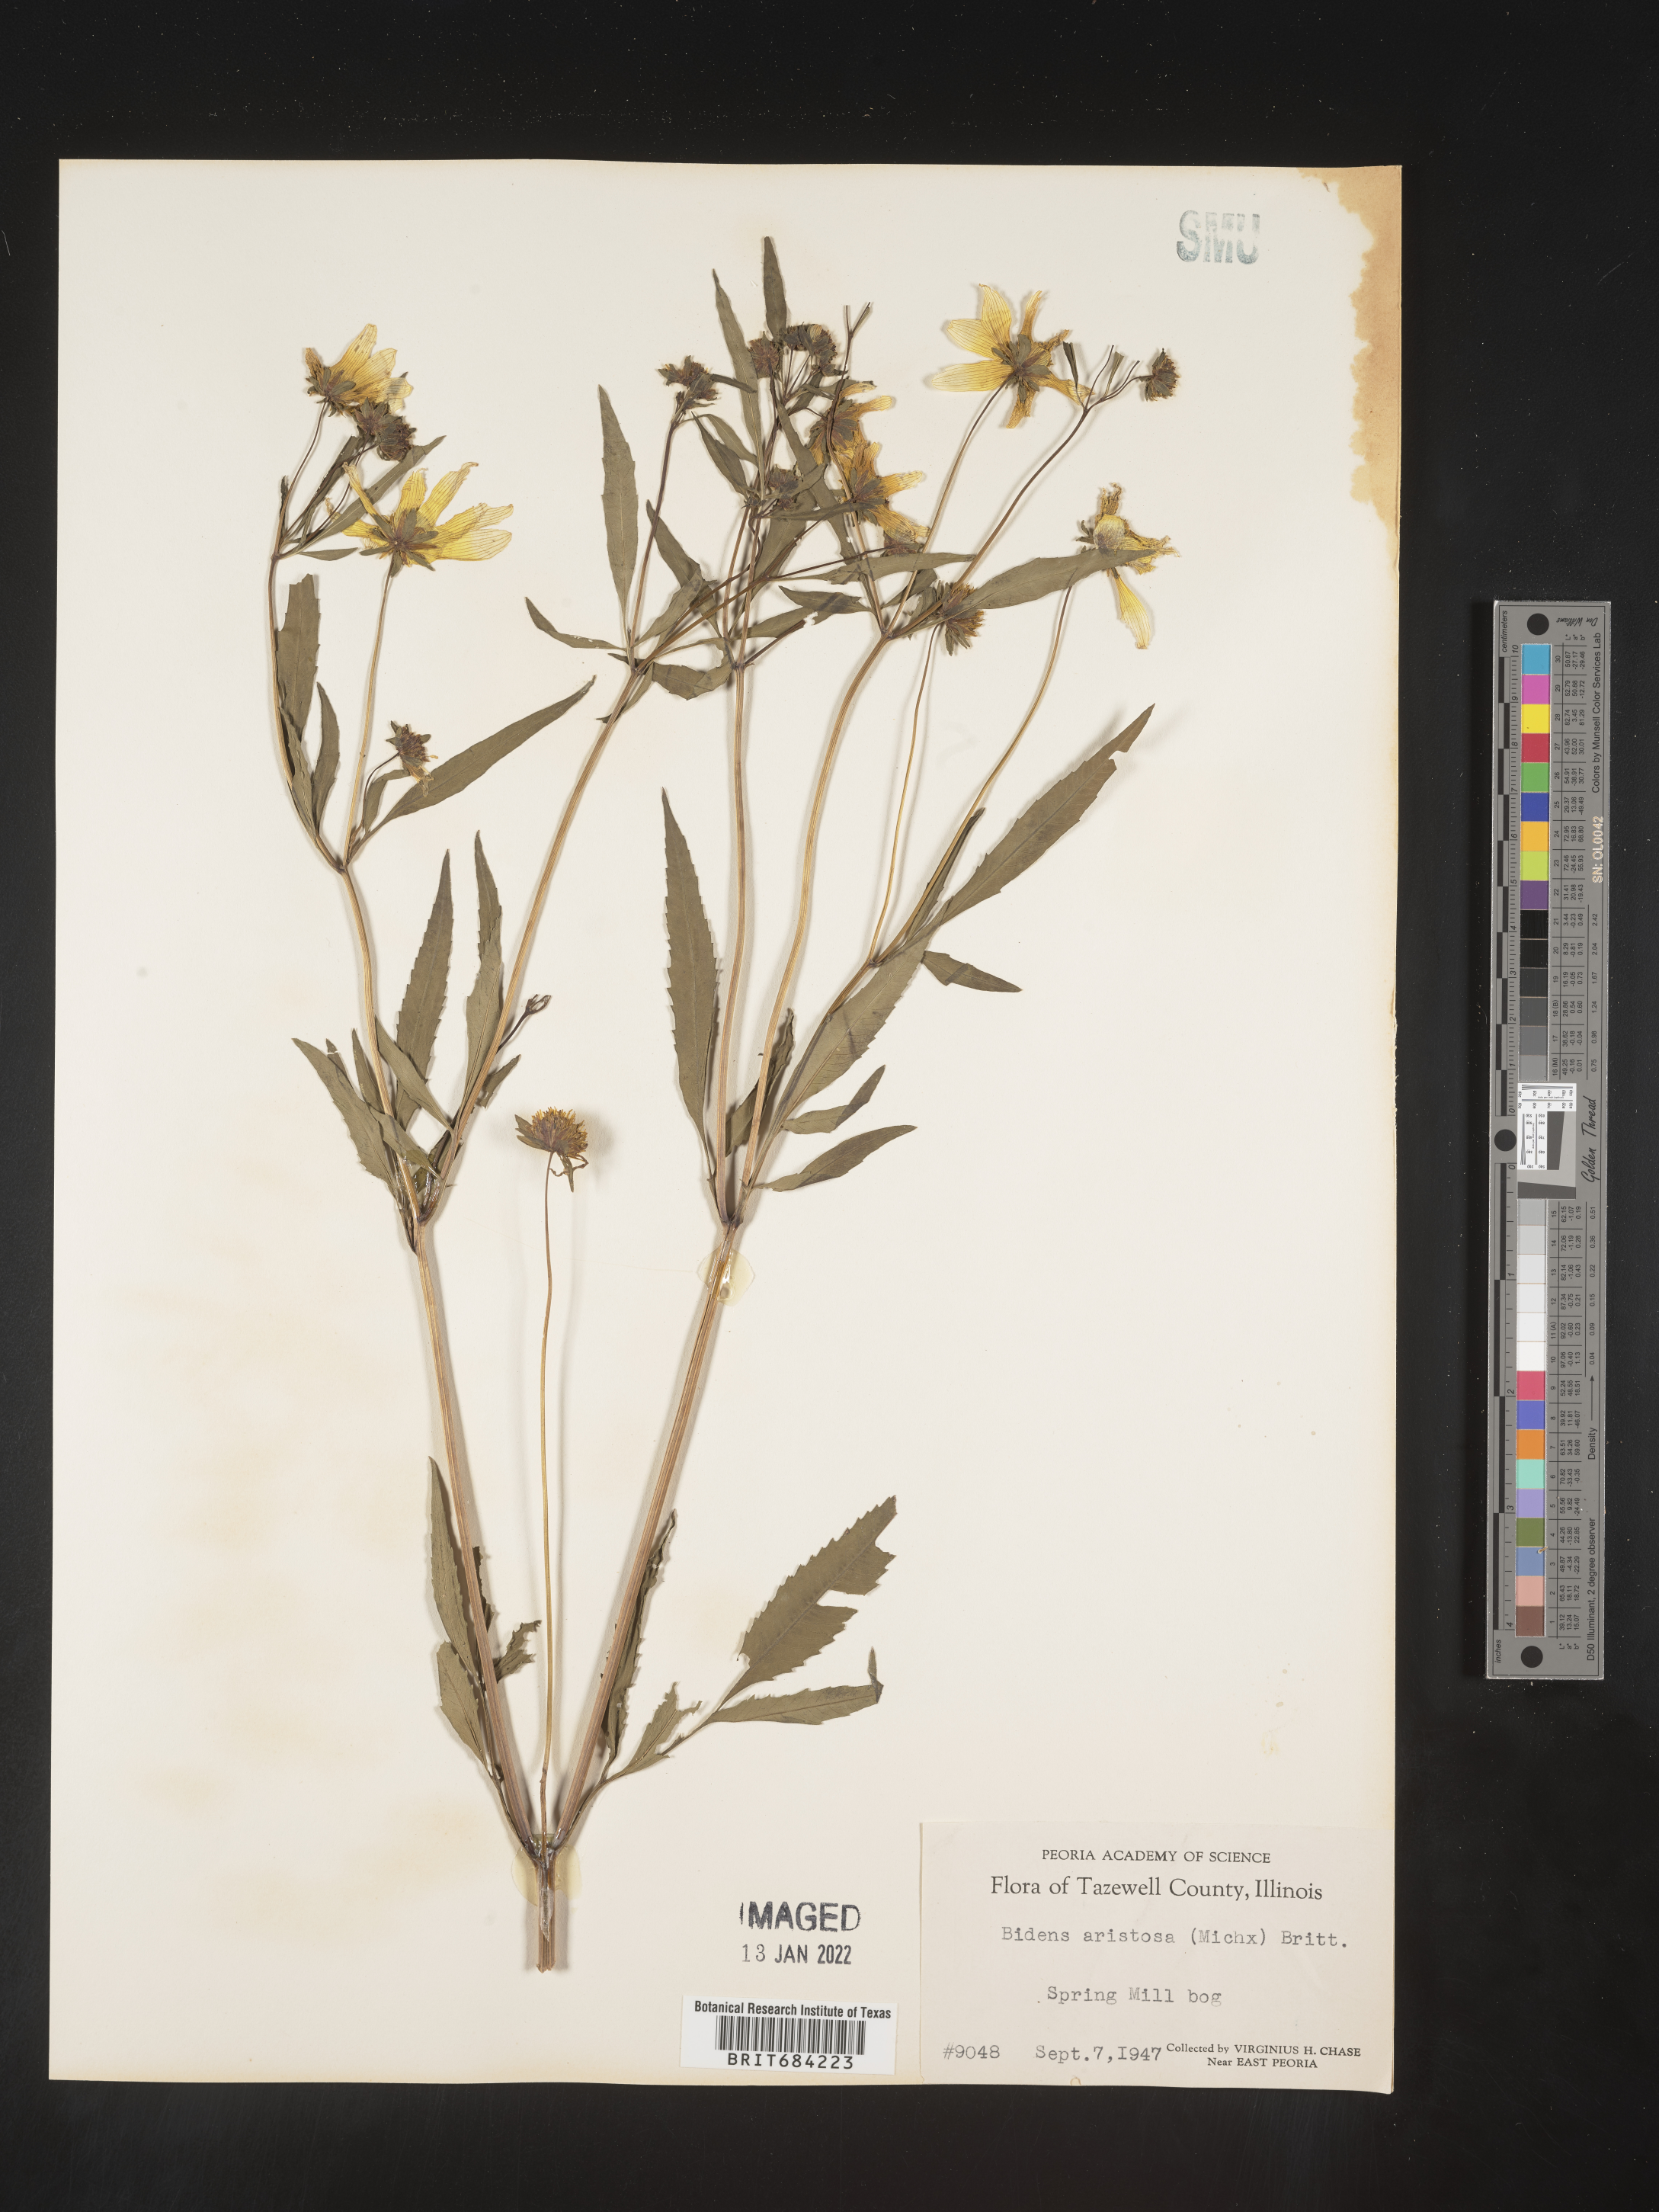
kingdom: Plantae
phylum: Tracheophyta
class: Magnoliopsida
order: Asterales
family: Asteraceae
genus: Bidens
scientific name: Bidens aristosa
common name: Western tickseed
